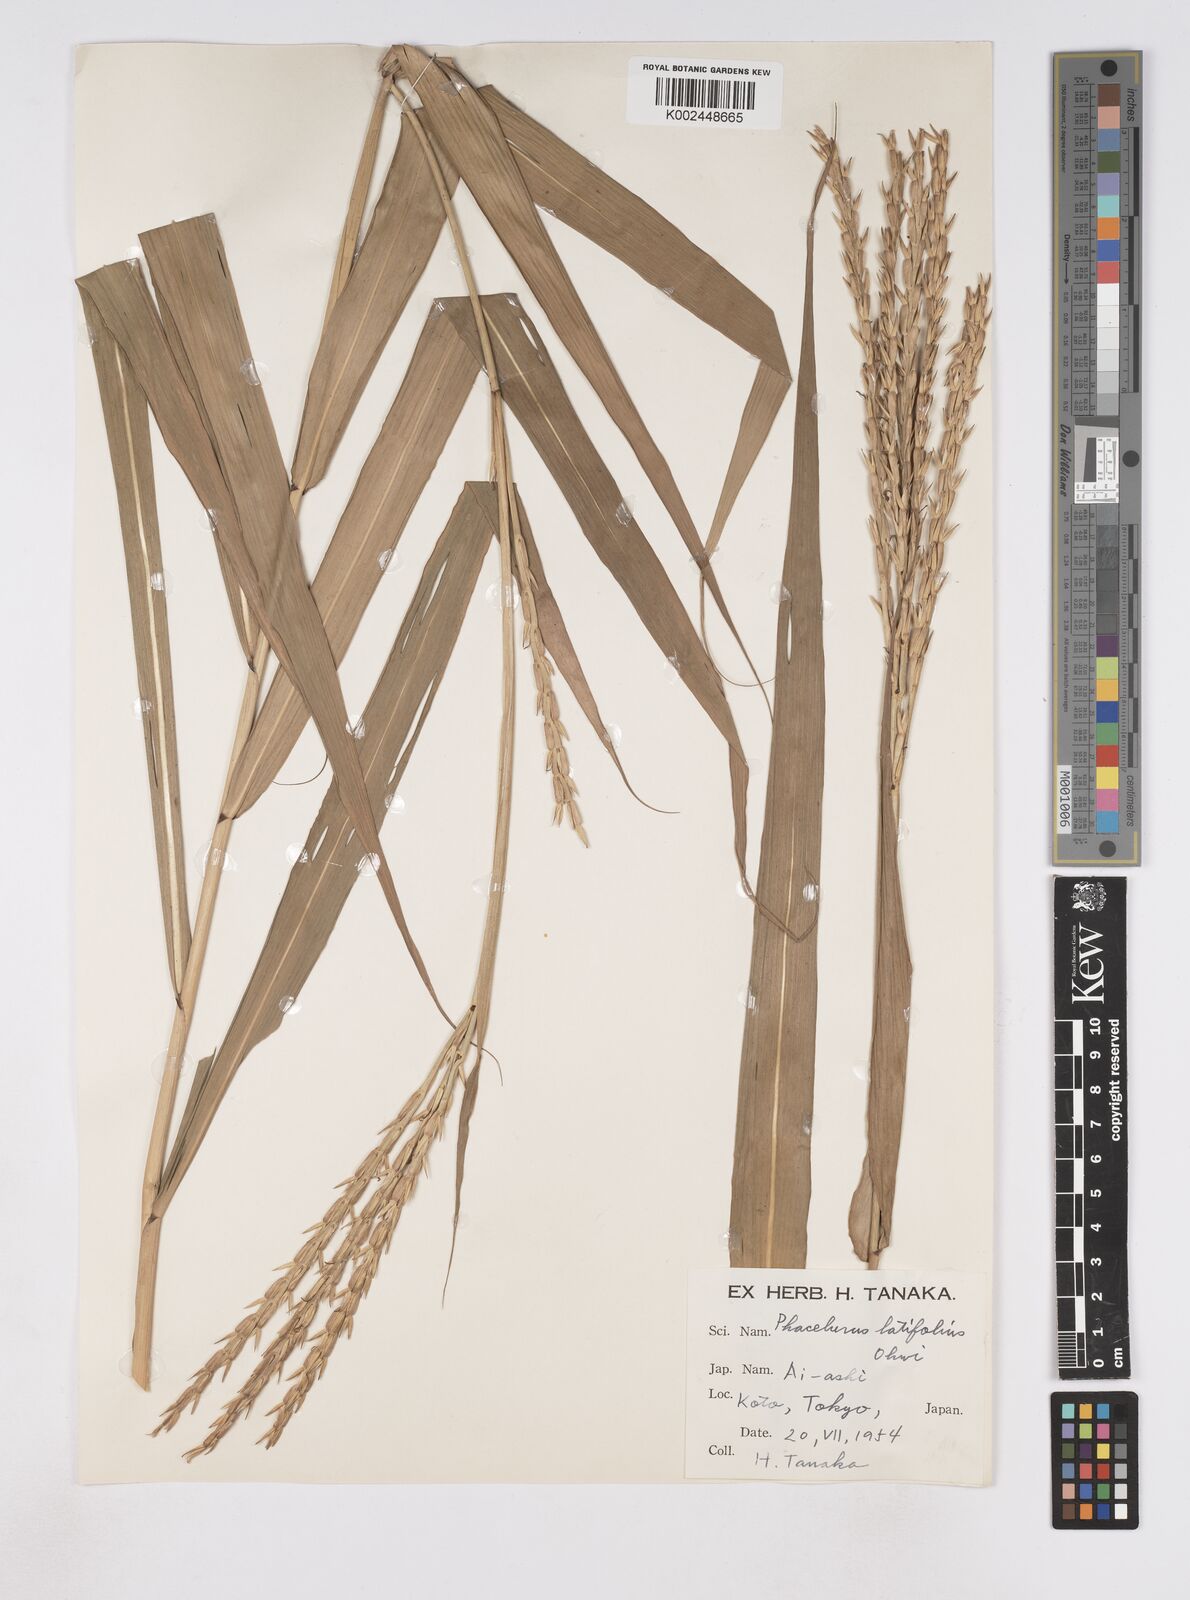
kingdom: Plantae
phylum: Tracheophyta
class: Liliopsida
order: Poales
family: Poaceae
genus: Phacelurus
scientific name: Phacelurus latifolius
